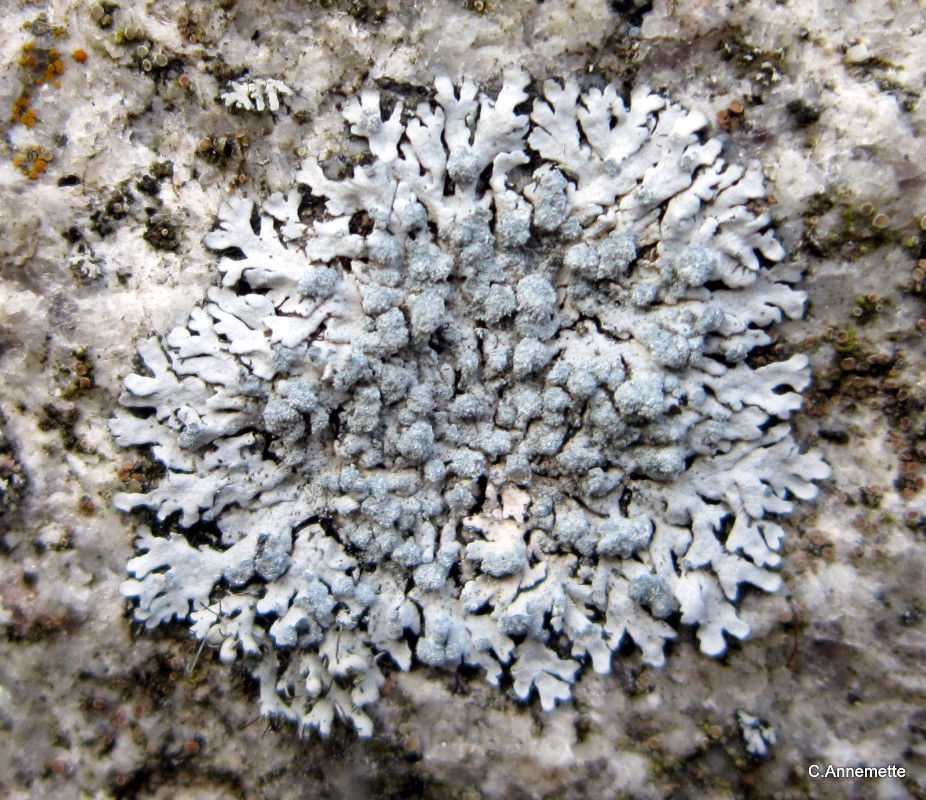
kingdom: Fungi
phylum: Ascomycota
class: Lecanoromycetes
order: Caliciales
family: Physciaceae
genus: Physcia
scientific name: Physcia caesia
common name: blågrå rosetlav
